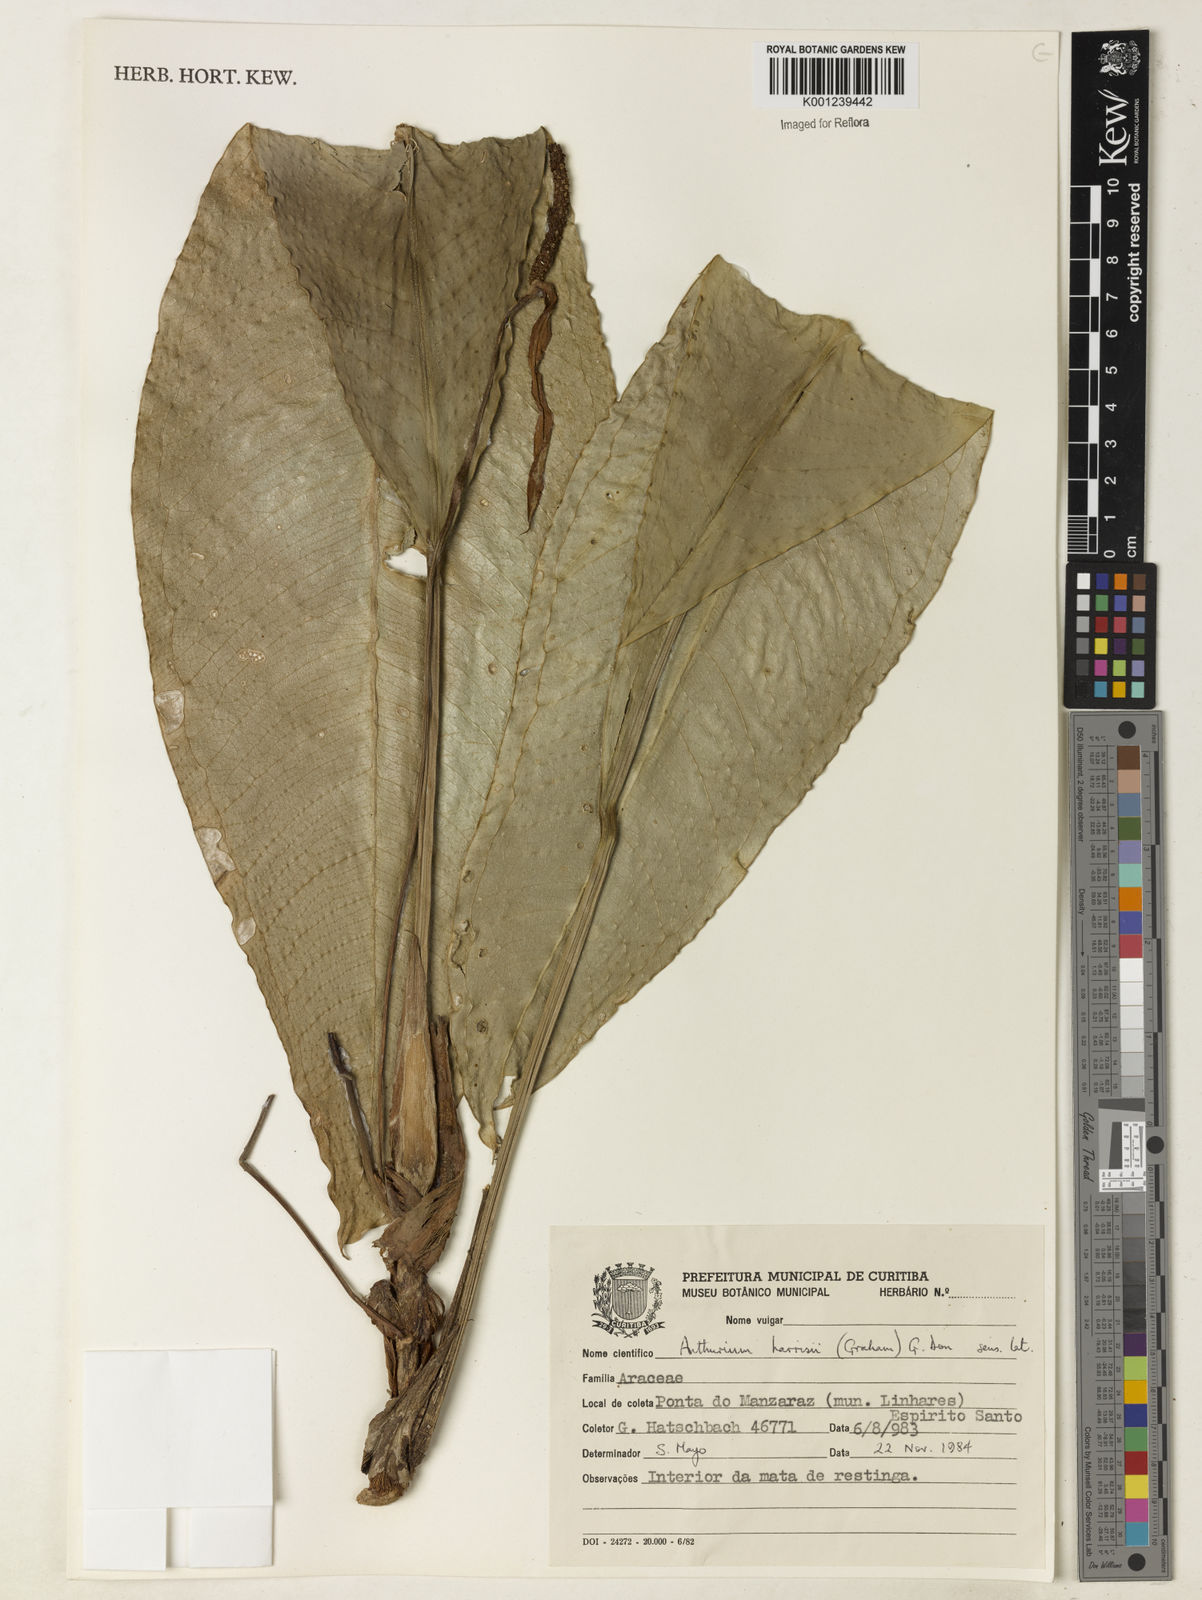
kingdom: Plantae
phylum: Tracheophyta
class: Liliopsida
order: Alismatales
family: Araceae
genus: Anthurium
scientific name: Anthurium harrisii
